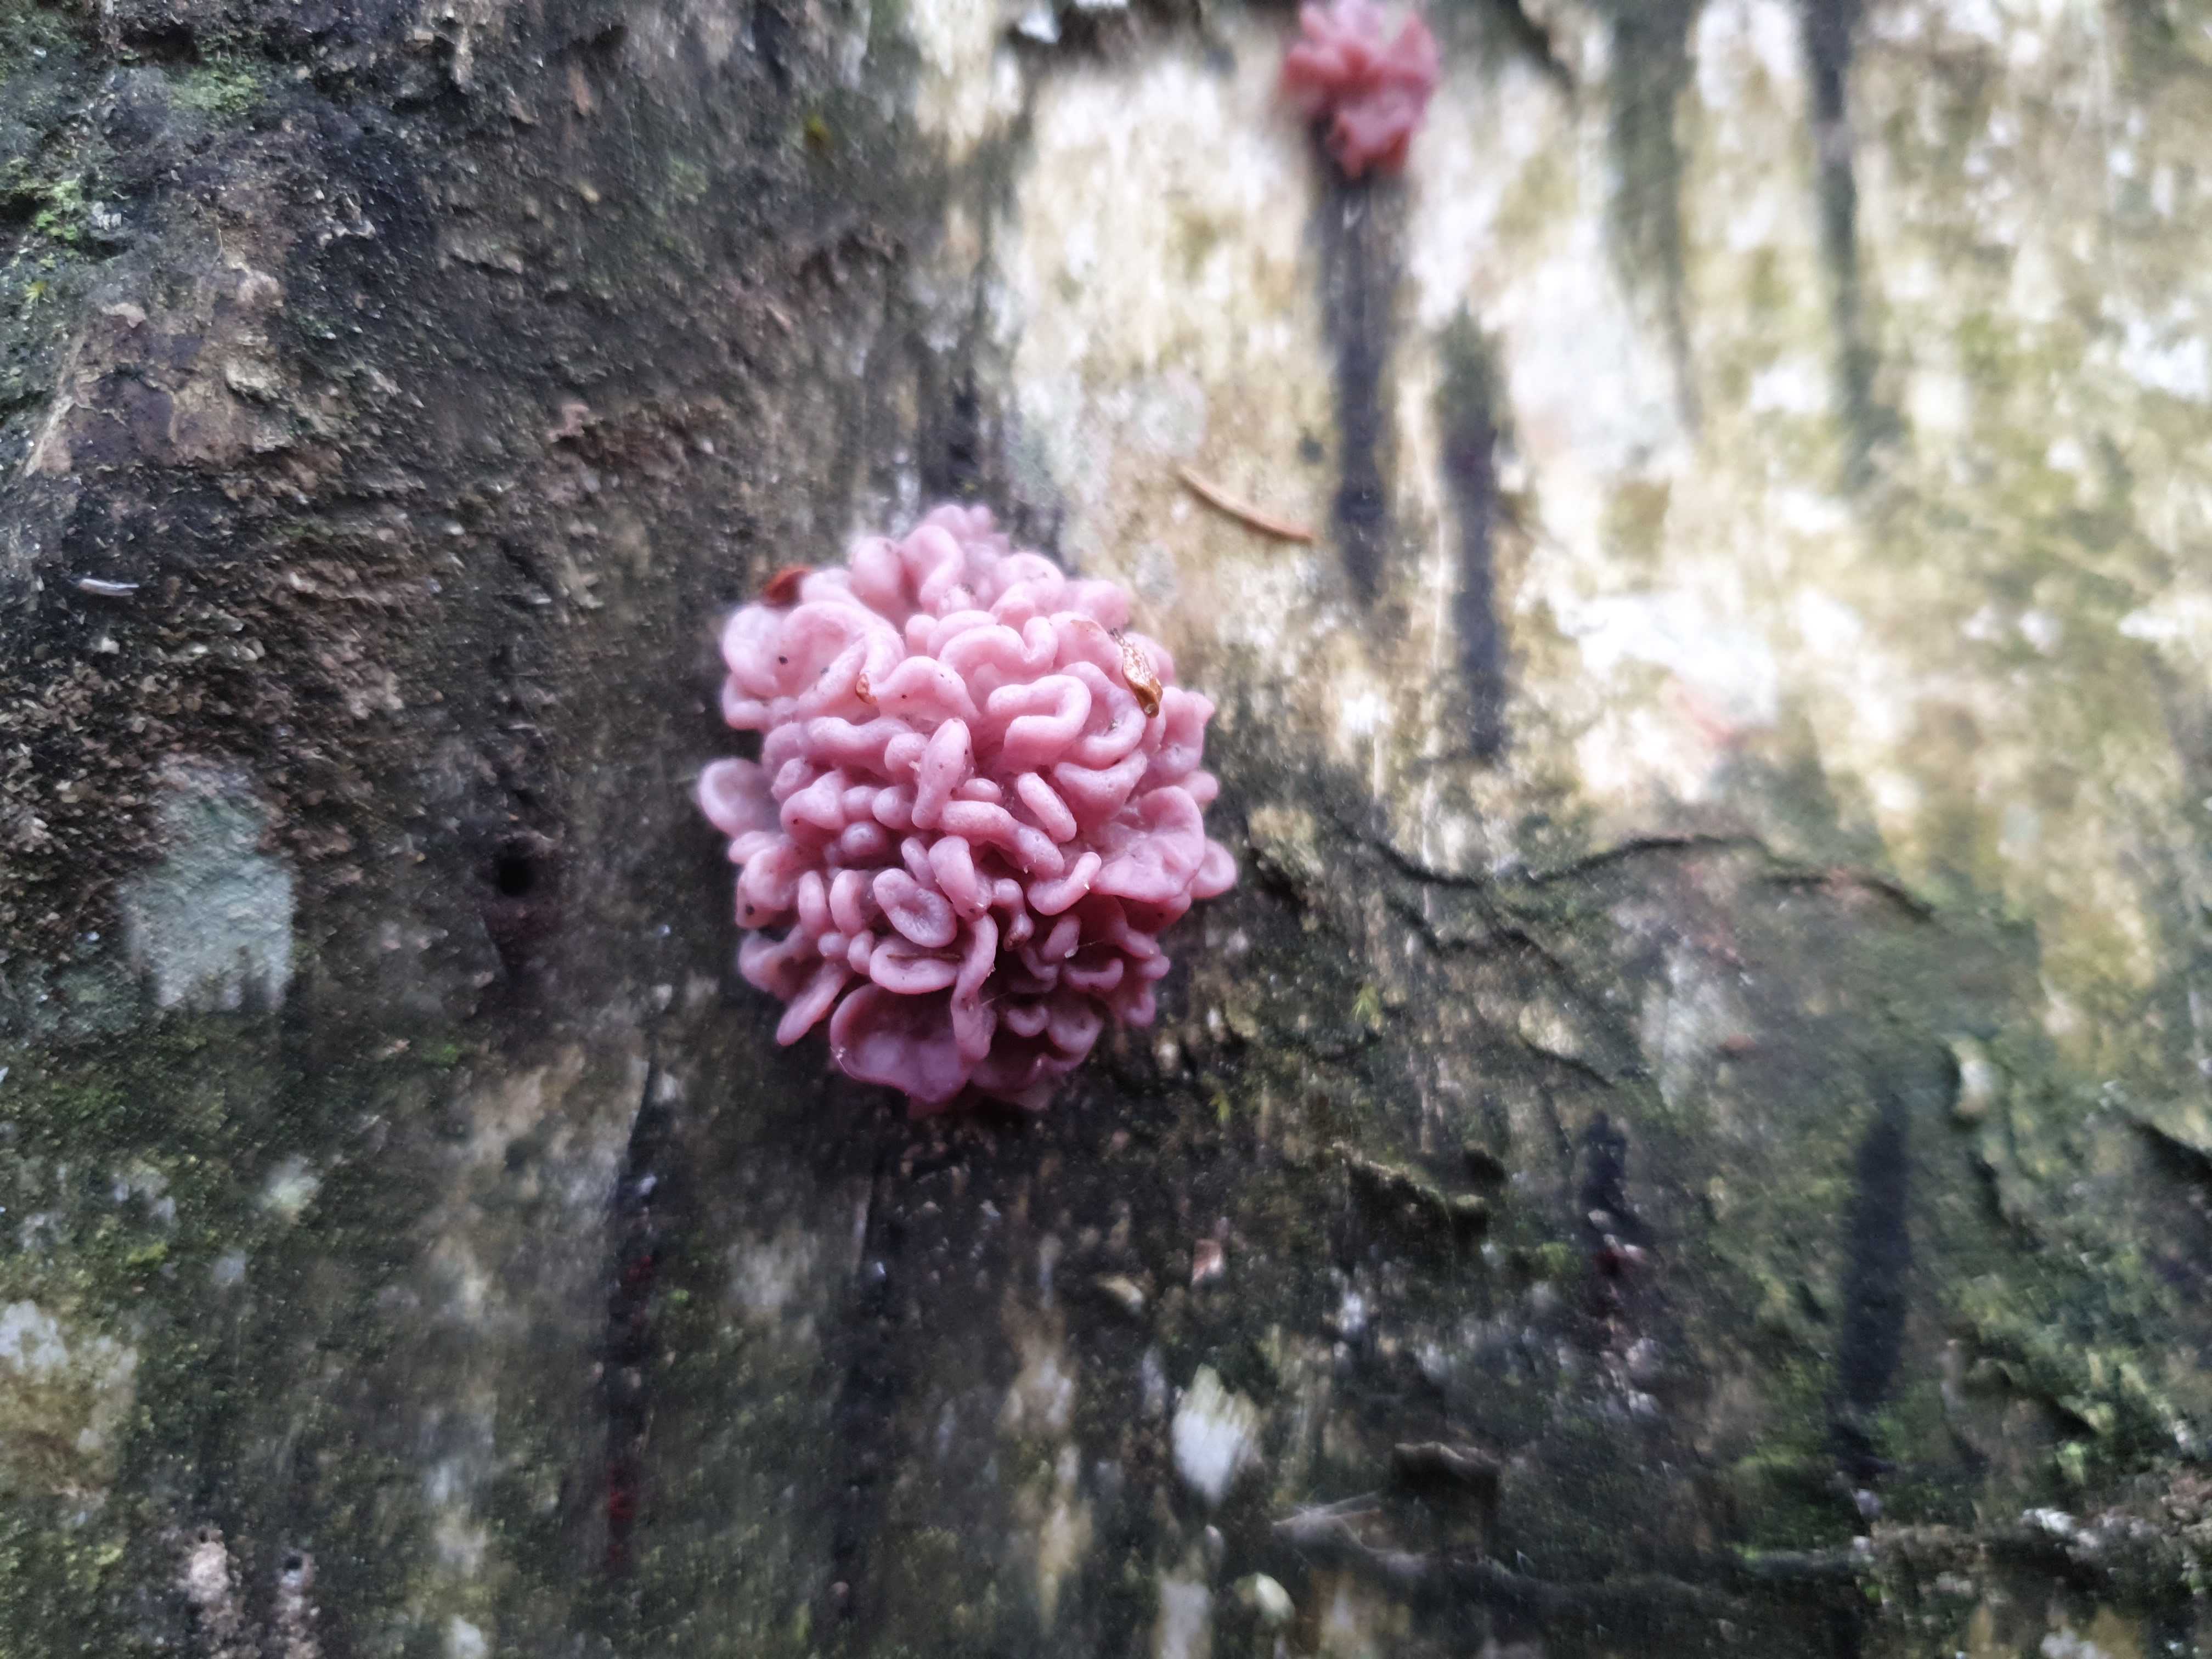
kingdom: Fungi
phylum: Ascomycota
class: Leotiomycetes
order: Helotiales
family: Gelatinodiscaceae
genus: Ascocoryne
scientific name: Ascocoryne sarcoides
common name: rødlilla sejskive
